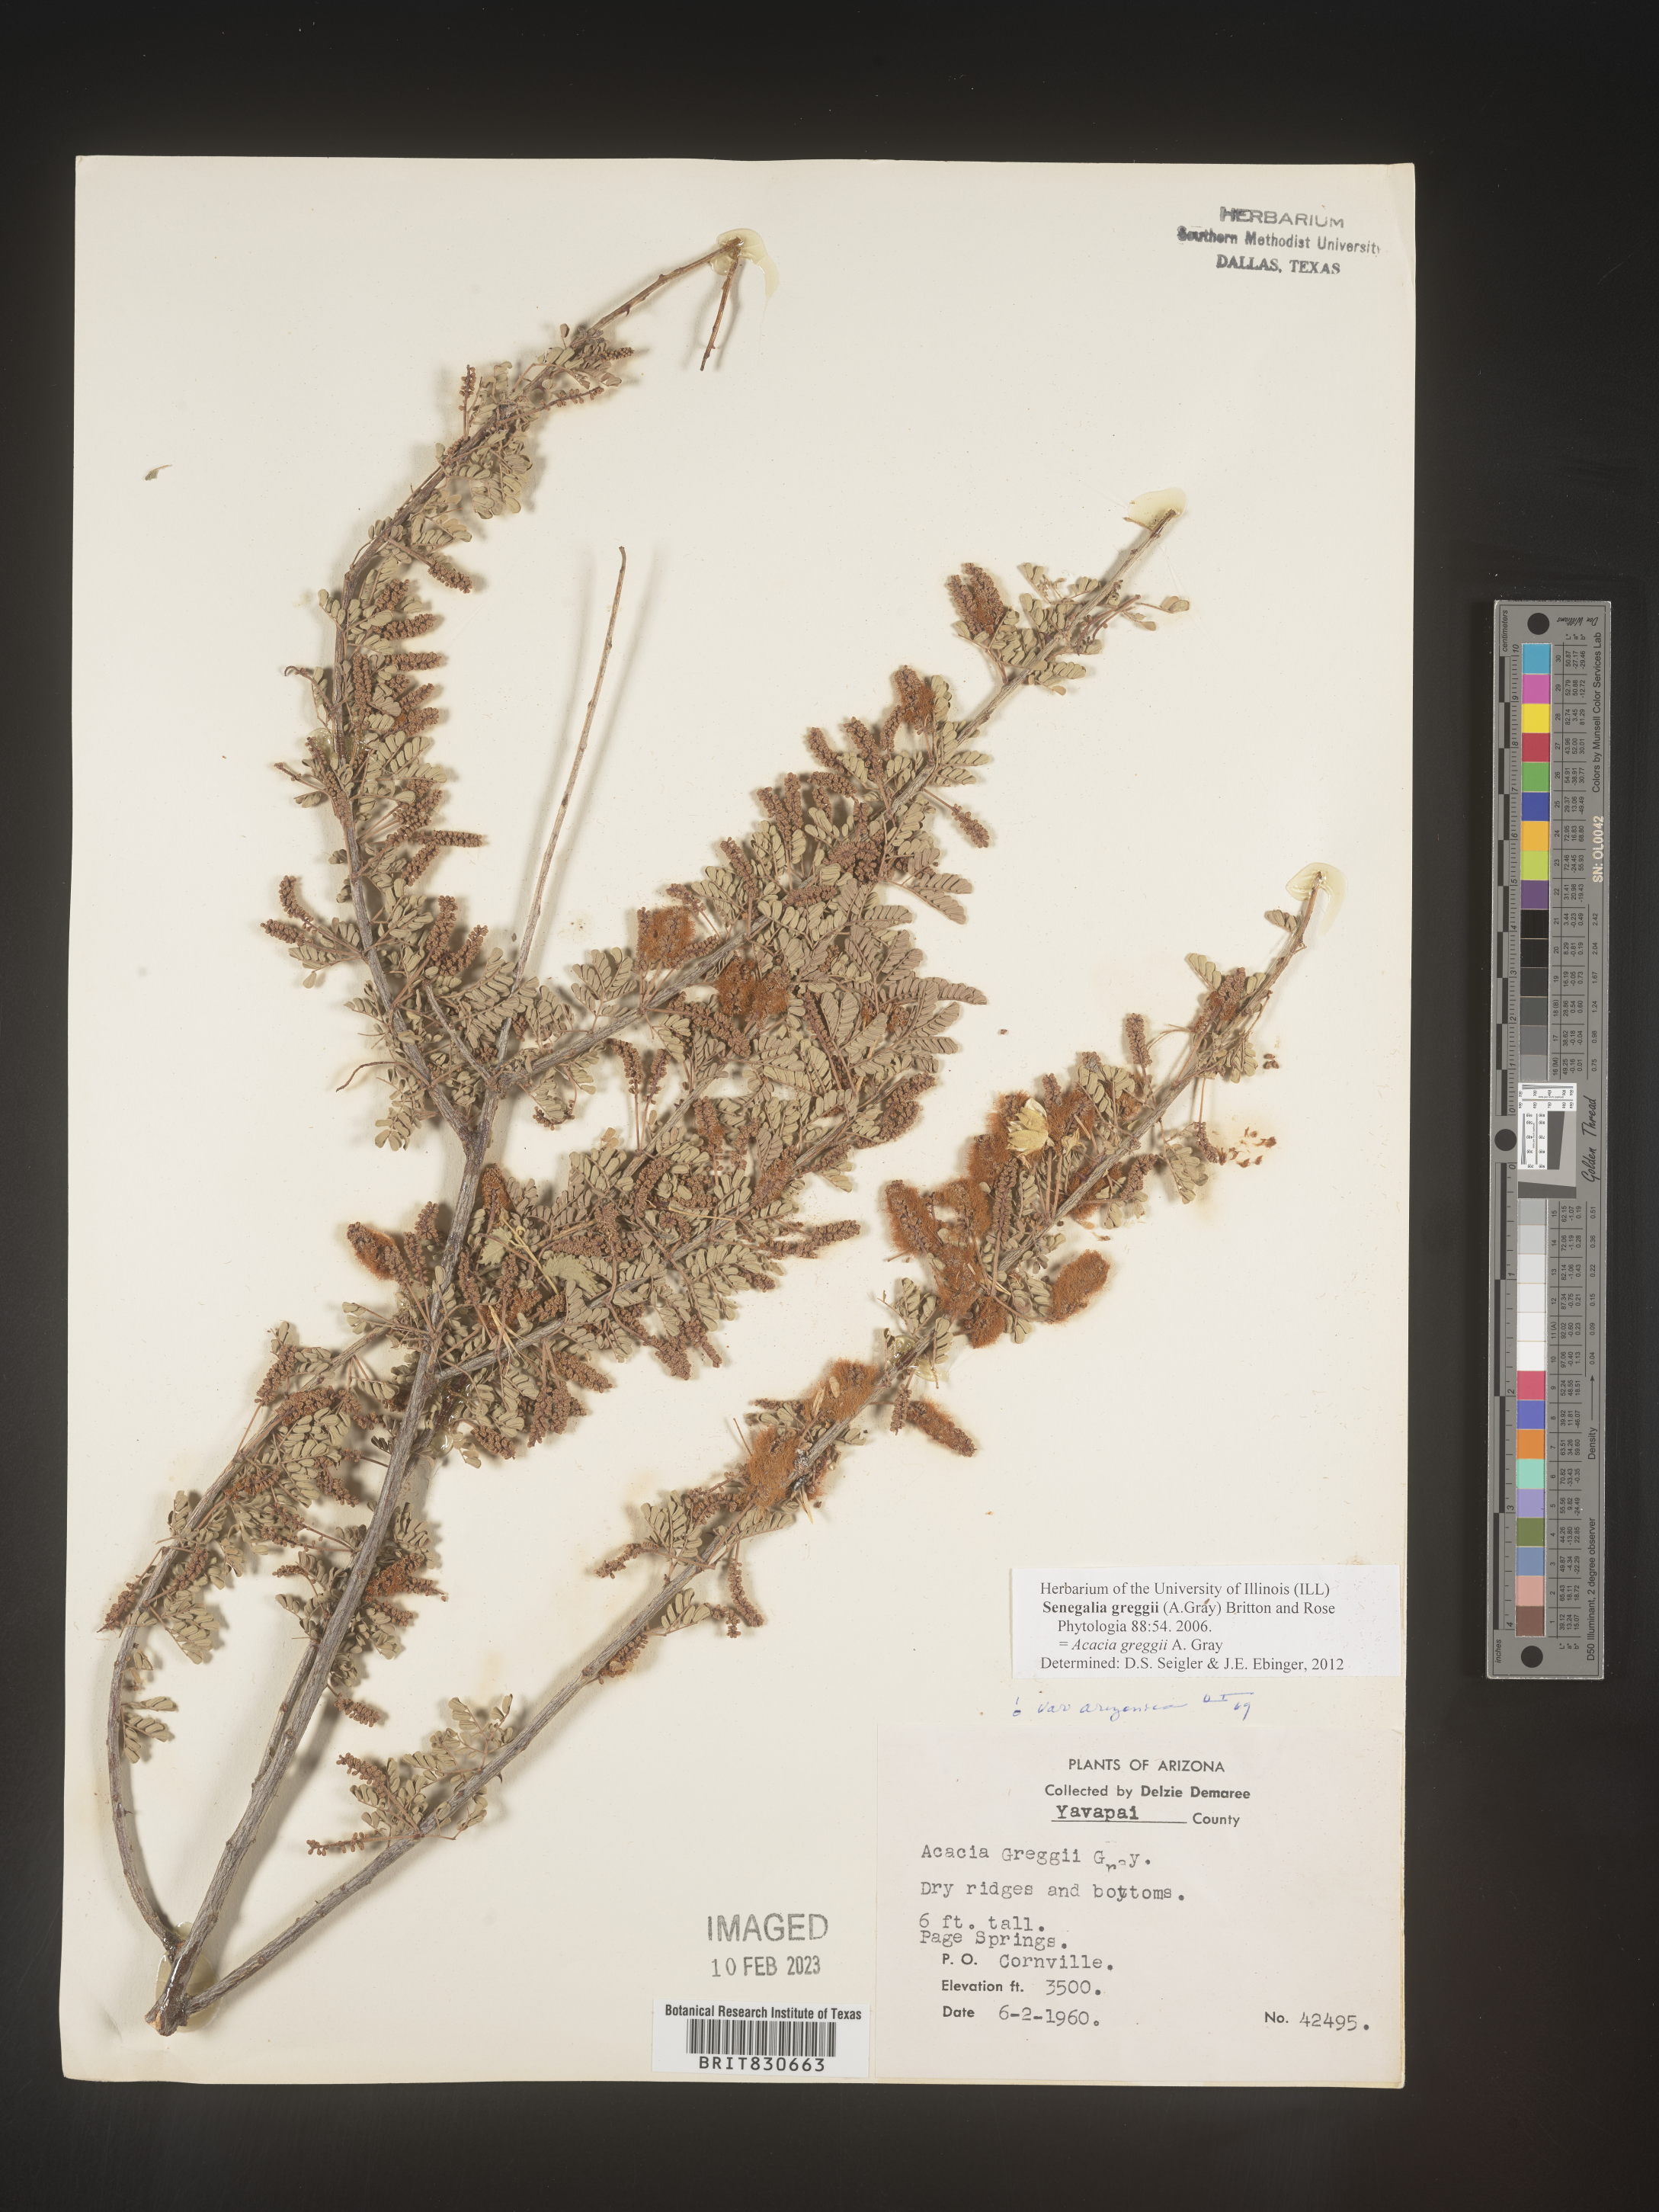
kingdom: Plantae
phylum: Tracheophyta
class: Magnoliopsida
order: Fabales
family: Fabaceae
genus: Senegalia
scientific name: Senegalia greggii
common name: Texas-mimosa
